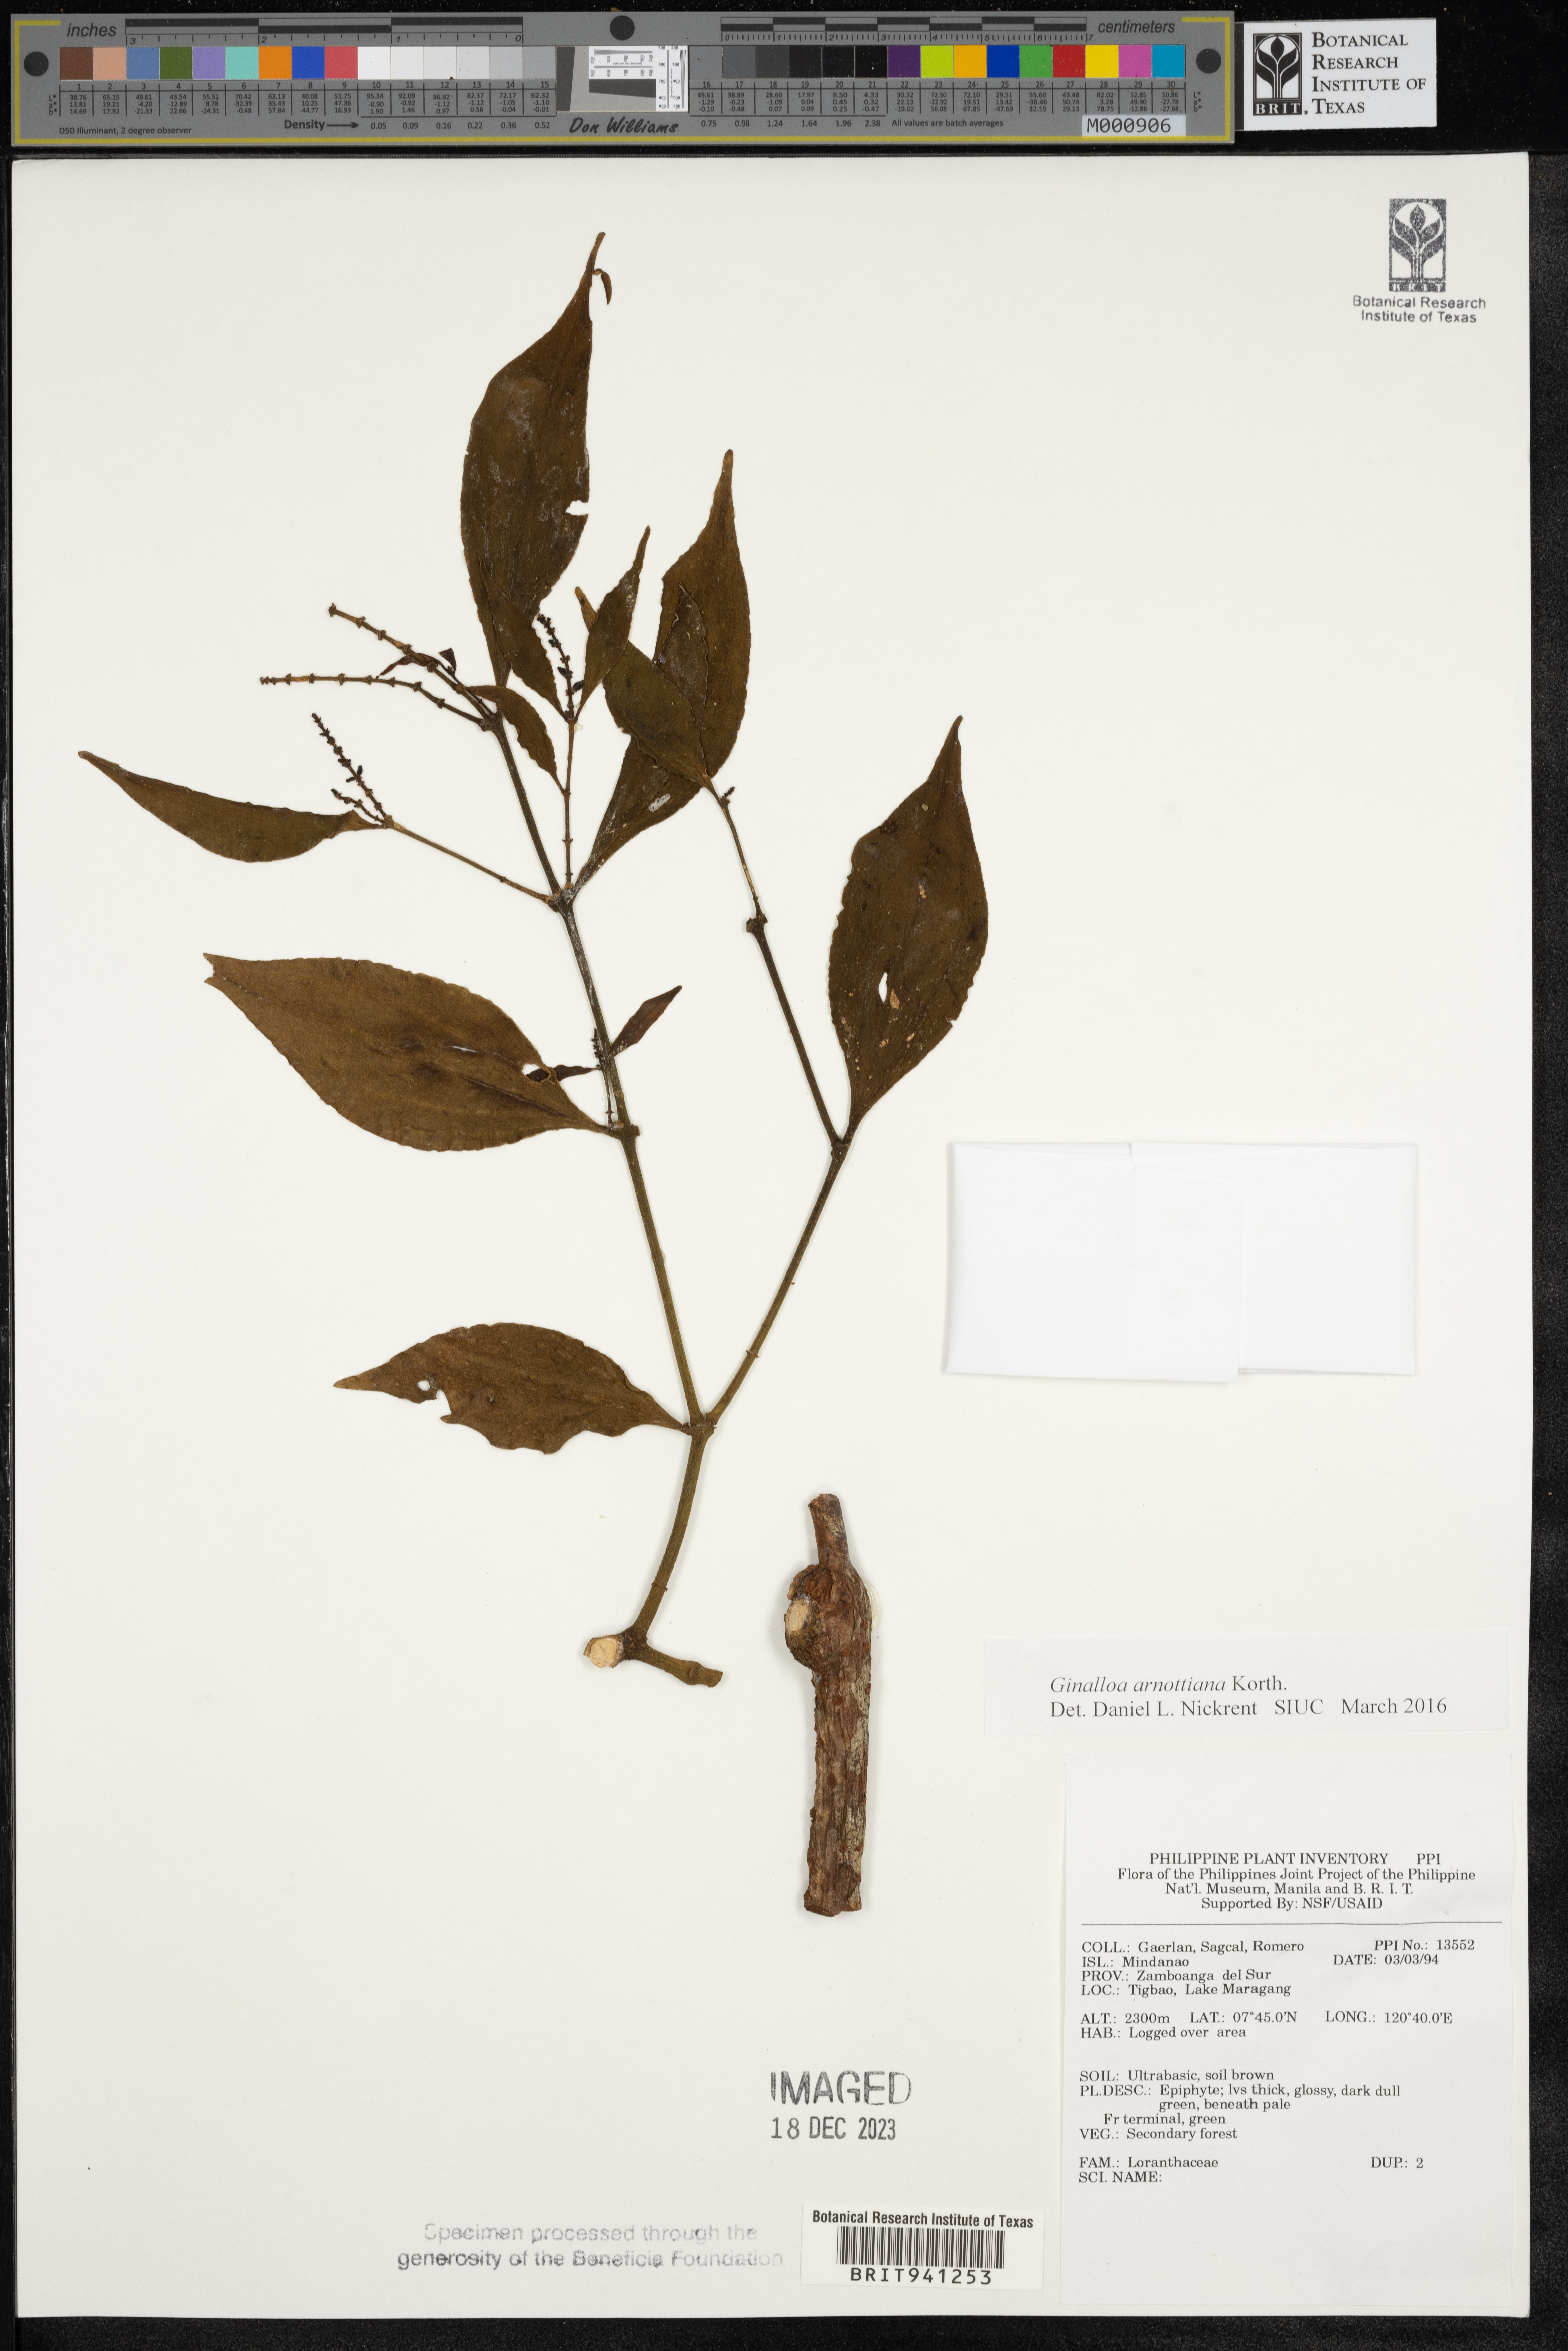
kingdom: Plantae
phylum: Tracheophyta
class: Magnoliopsida
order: Santalales
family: Viscaceae
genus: Ginalloa
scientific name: Ginalloa
